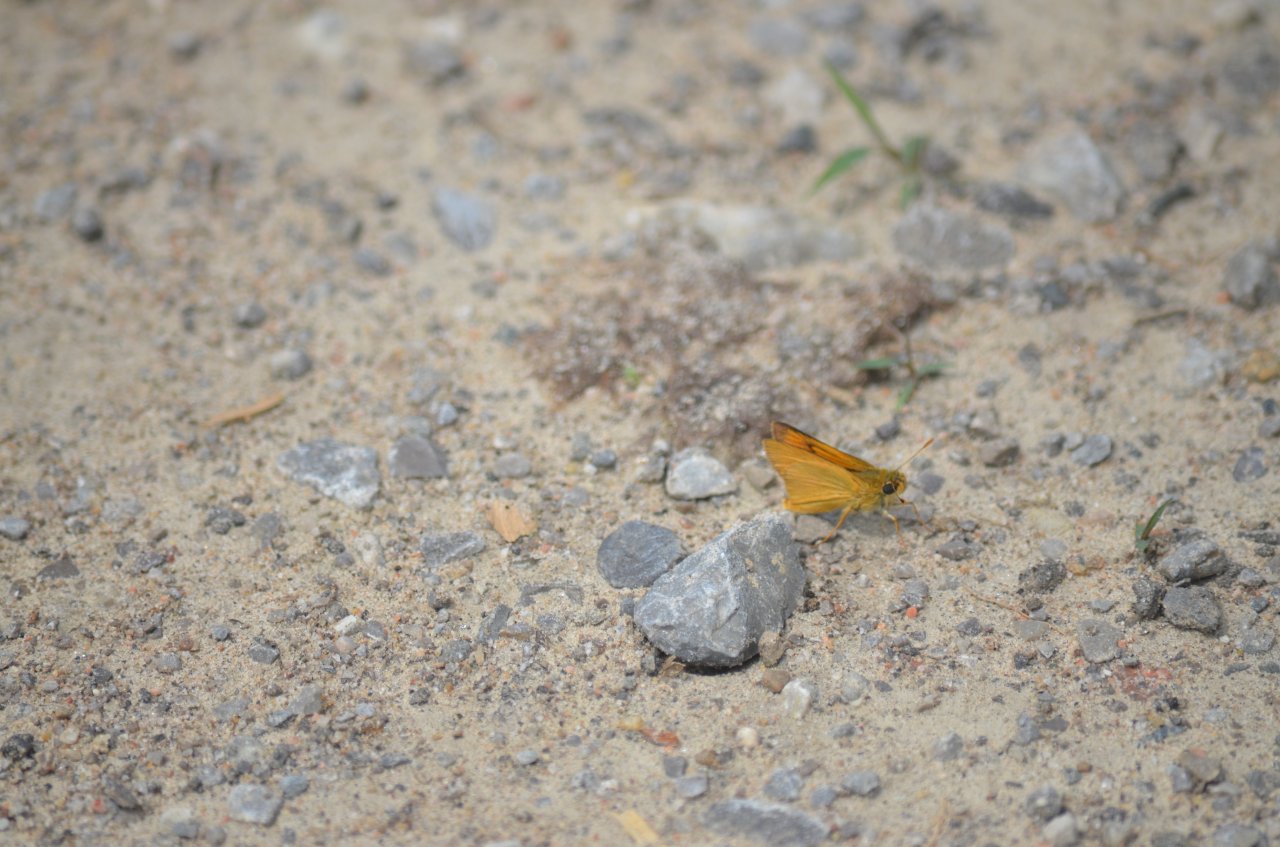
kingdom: Animalia
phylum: Arthropoda
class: Insecta
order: Lepidoptera
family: Hesperiidae
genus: Atrytone
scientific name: Atrytone delaware
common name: Delaware Skipper
